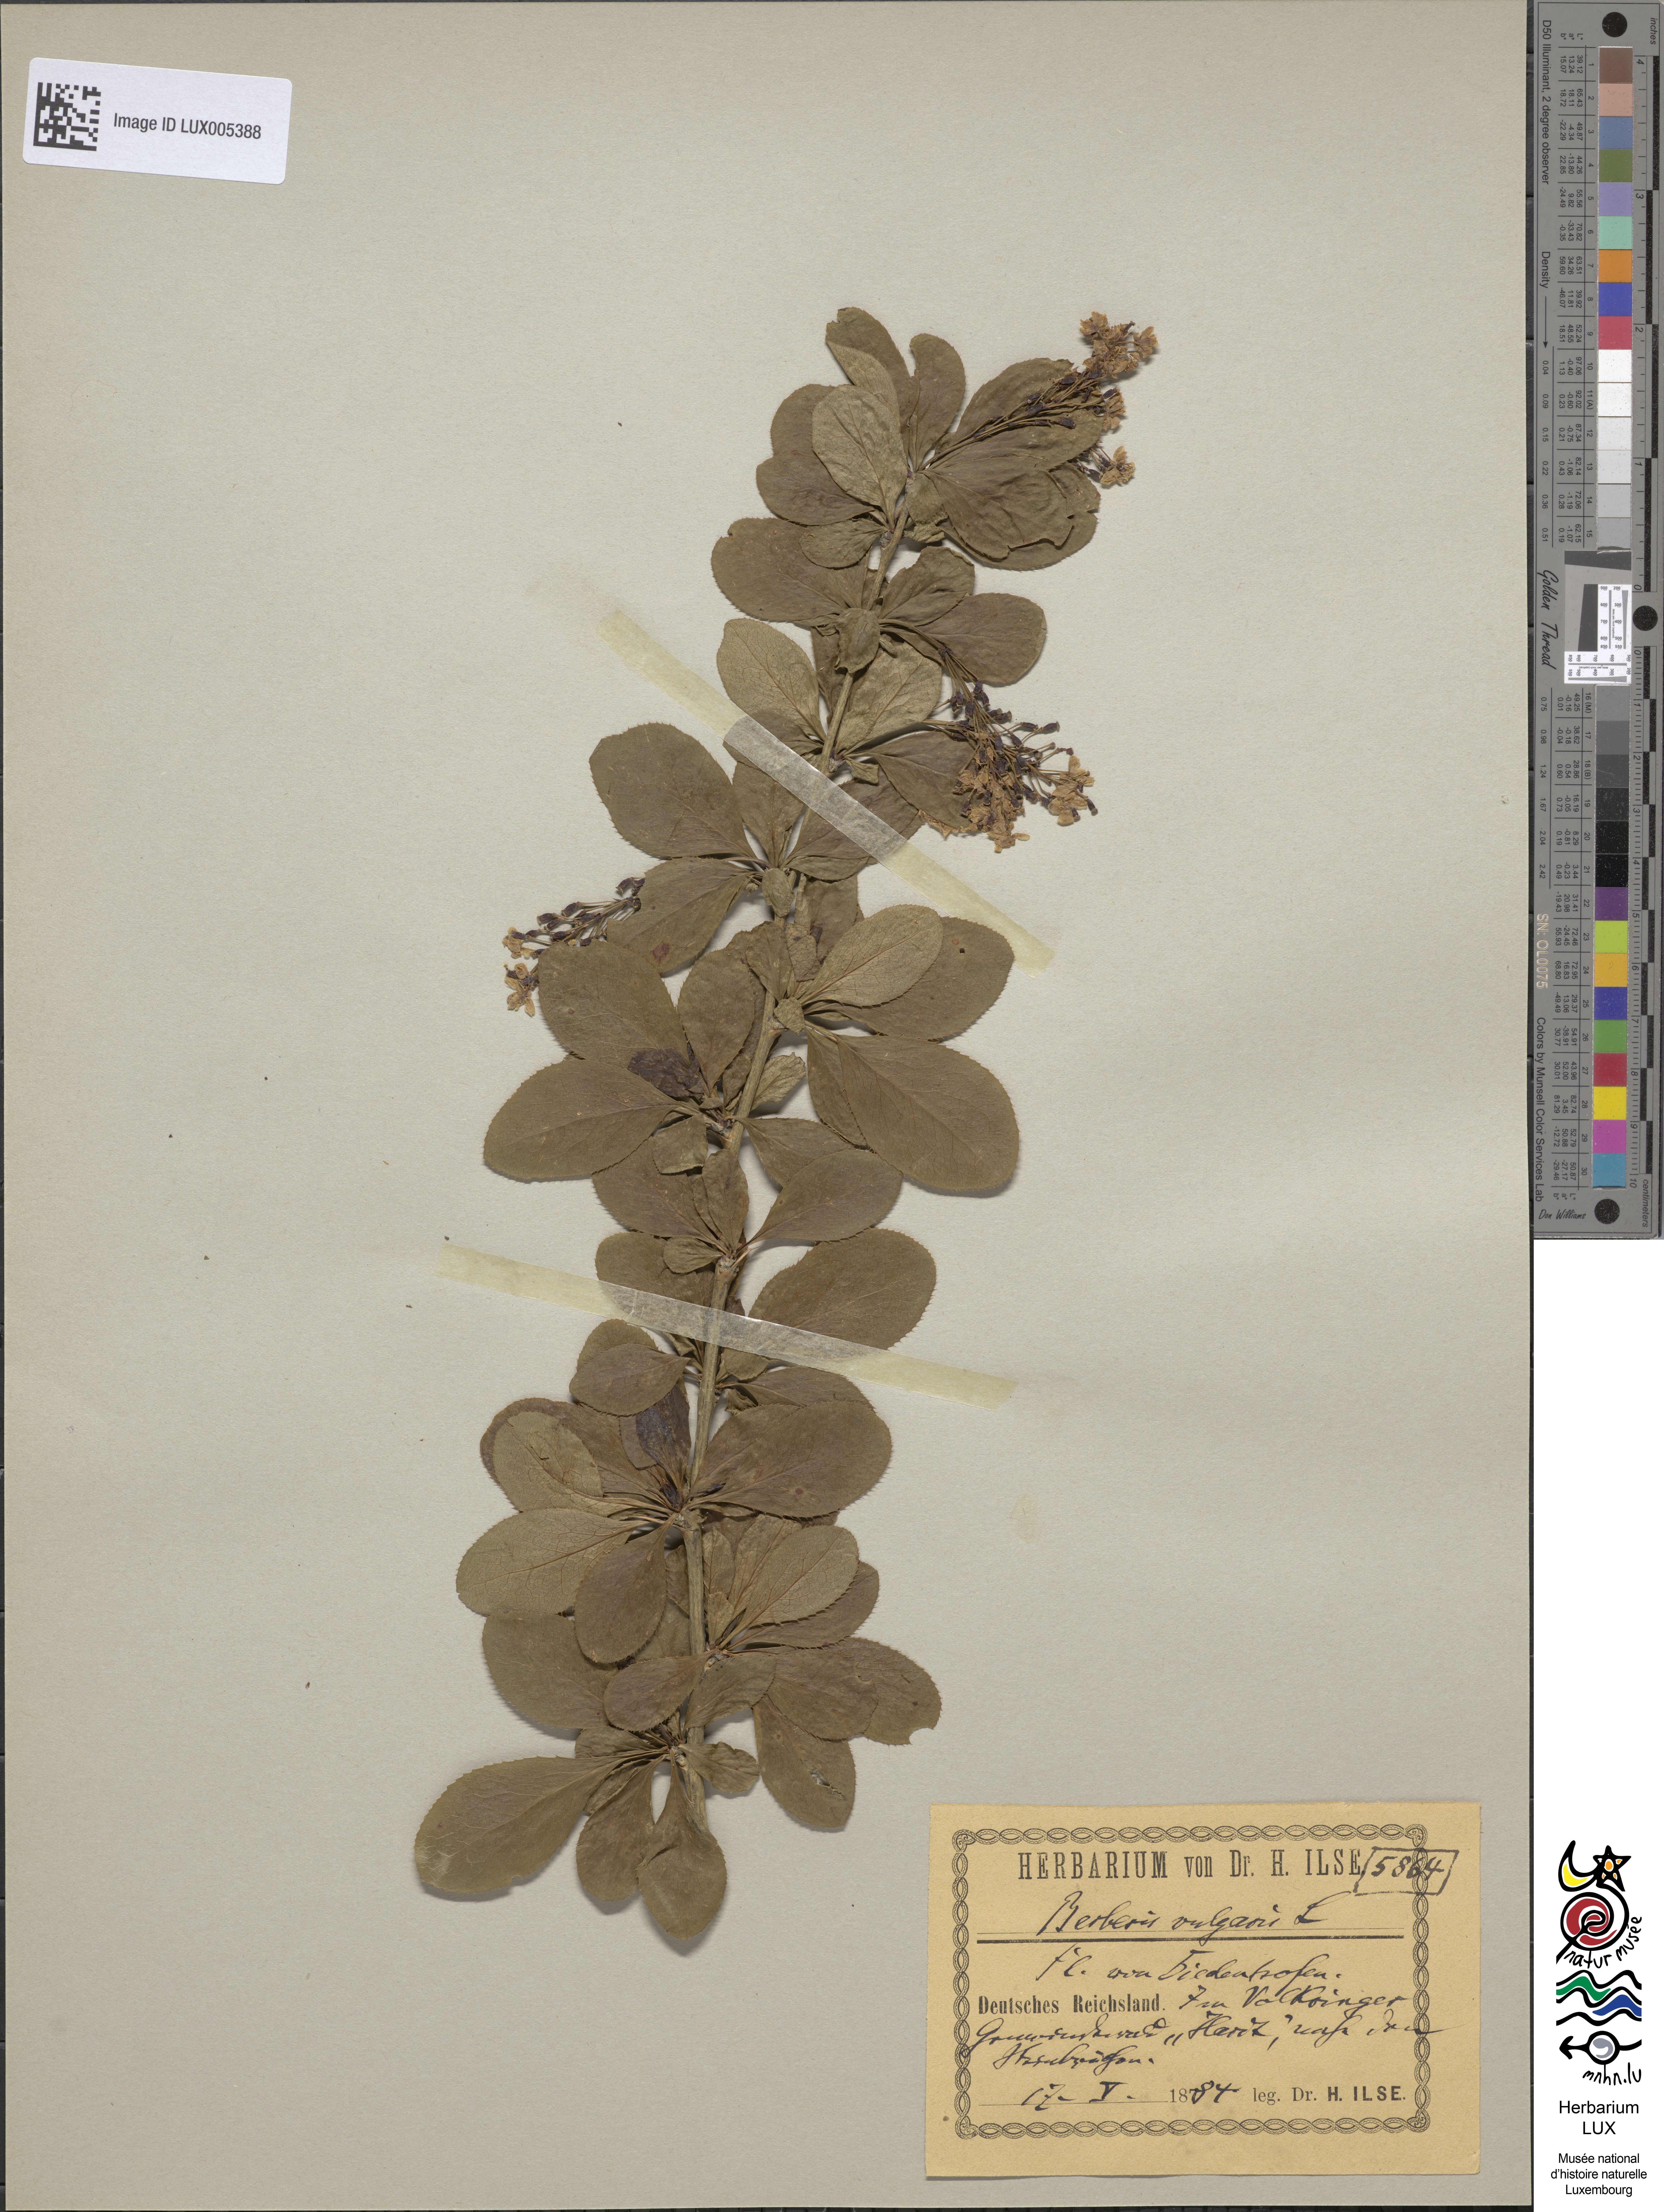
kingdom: Plantae
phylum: Tracheophyta
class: Magnoliopsida
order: Ranunculales
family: Berberidaceae
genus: Berberis
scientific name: Berberis vulgaris
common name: Barberry
